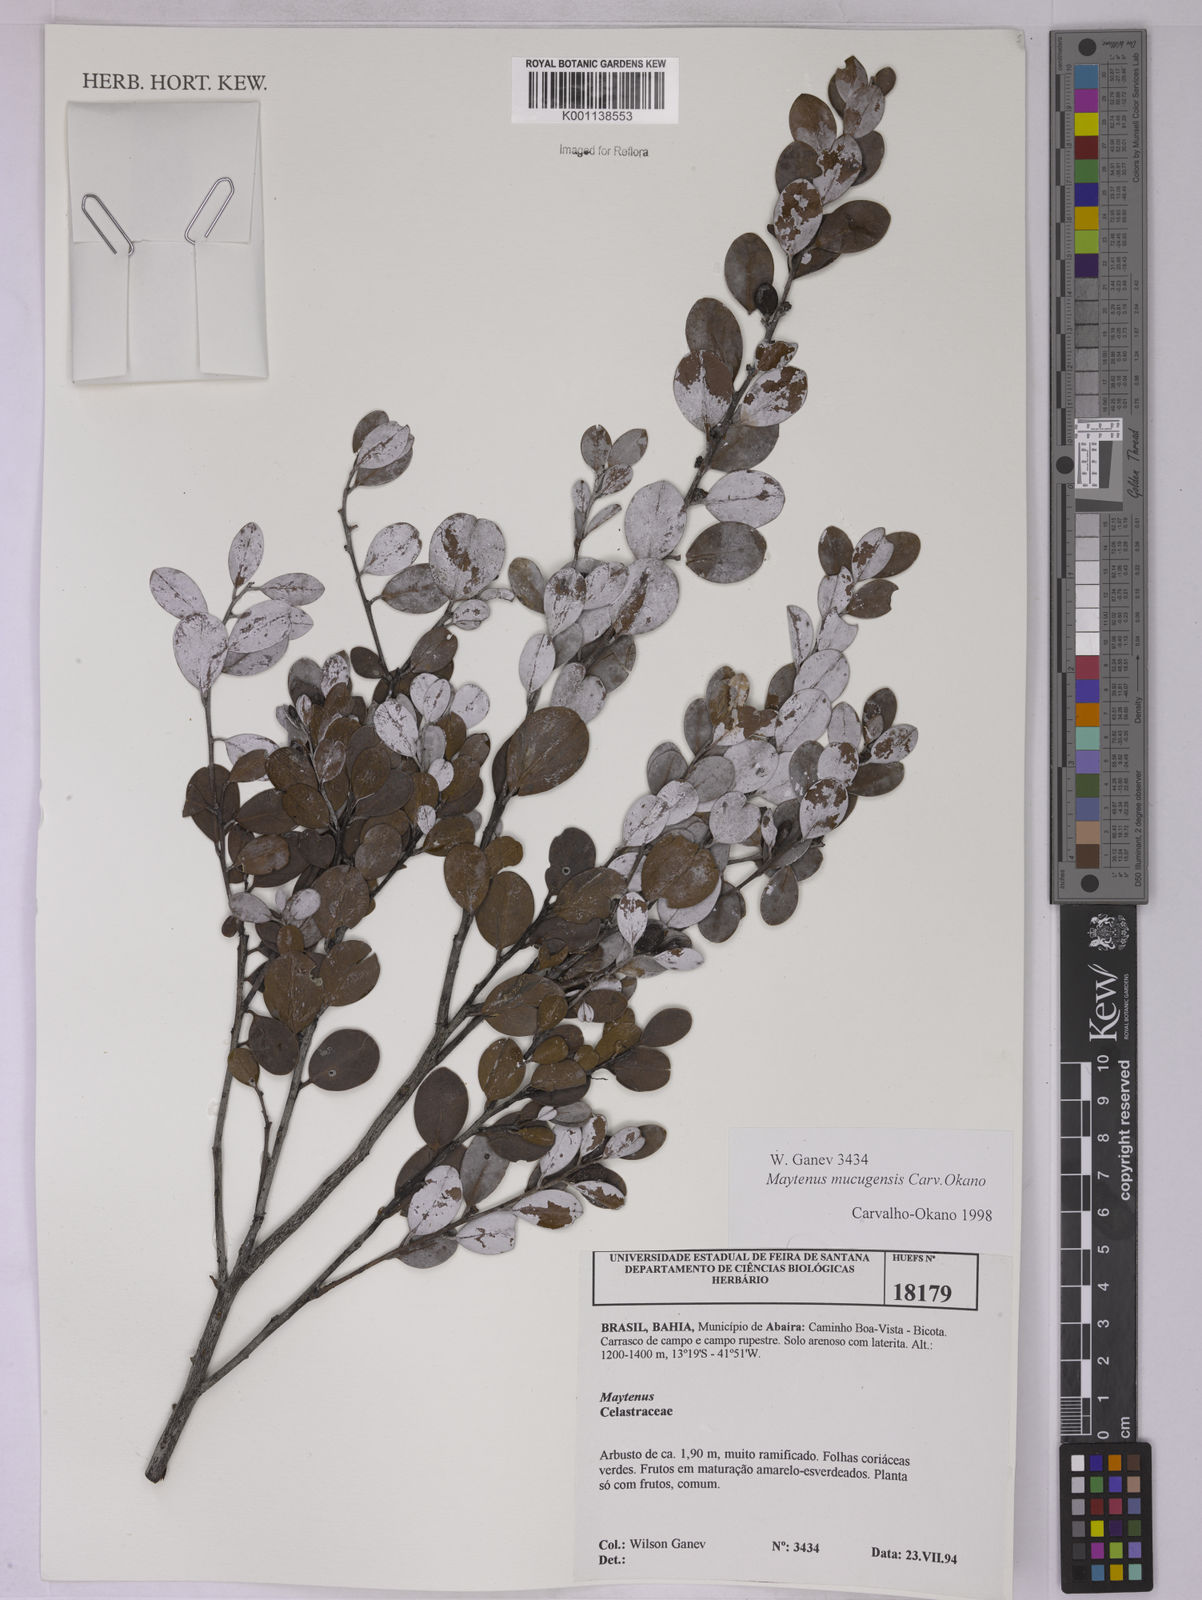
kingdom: Plantae
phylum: Tracheophyta
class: Magnoliopsida
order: Celastrales
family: Celastraceae
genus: Monteverdia
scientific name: Monteverdia mucugensis
